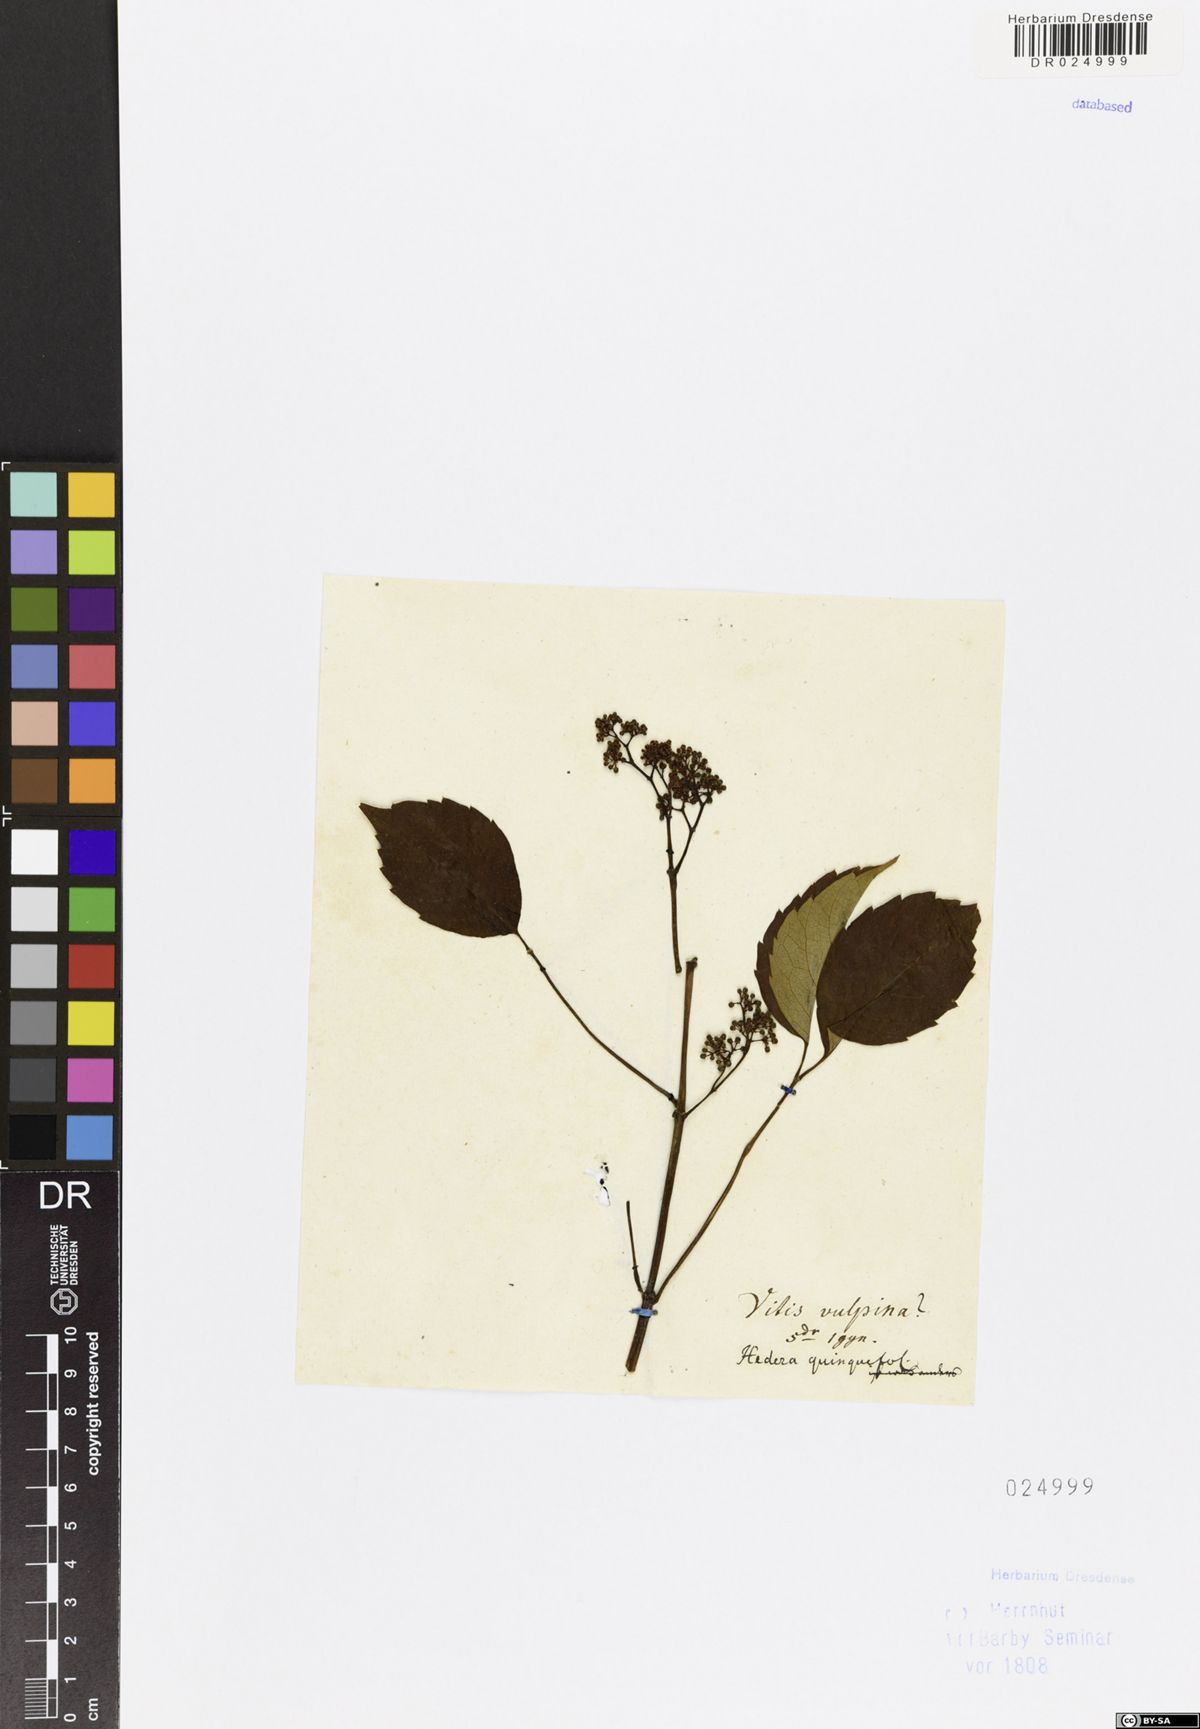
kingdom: Plantae
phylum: Tracheophyta
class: Magnoliopsida
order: Vitales
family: Vitaceae
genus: Parthenocissus
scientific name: Parthenocissus quinquefolia
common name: Virginia-creeper
